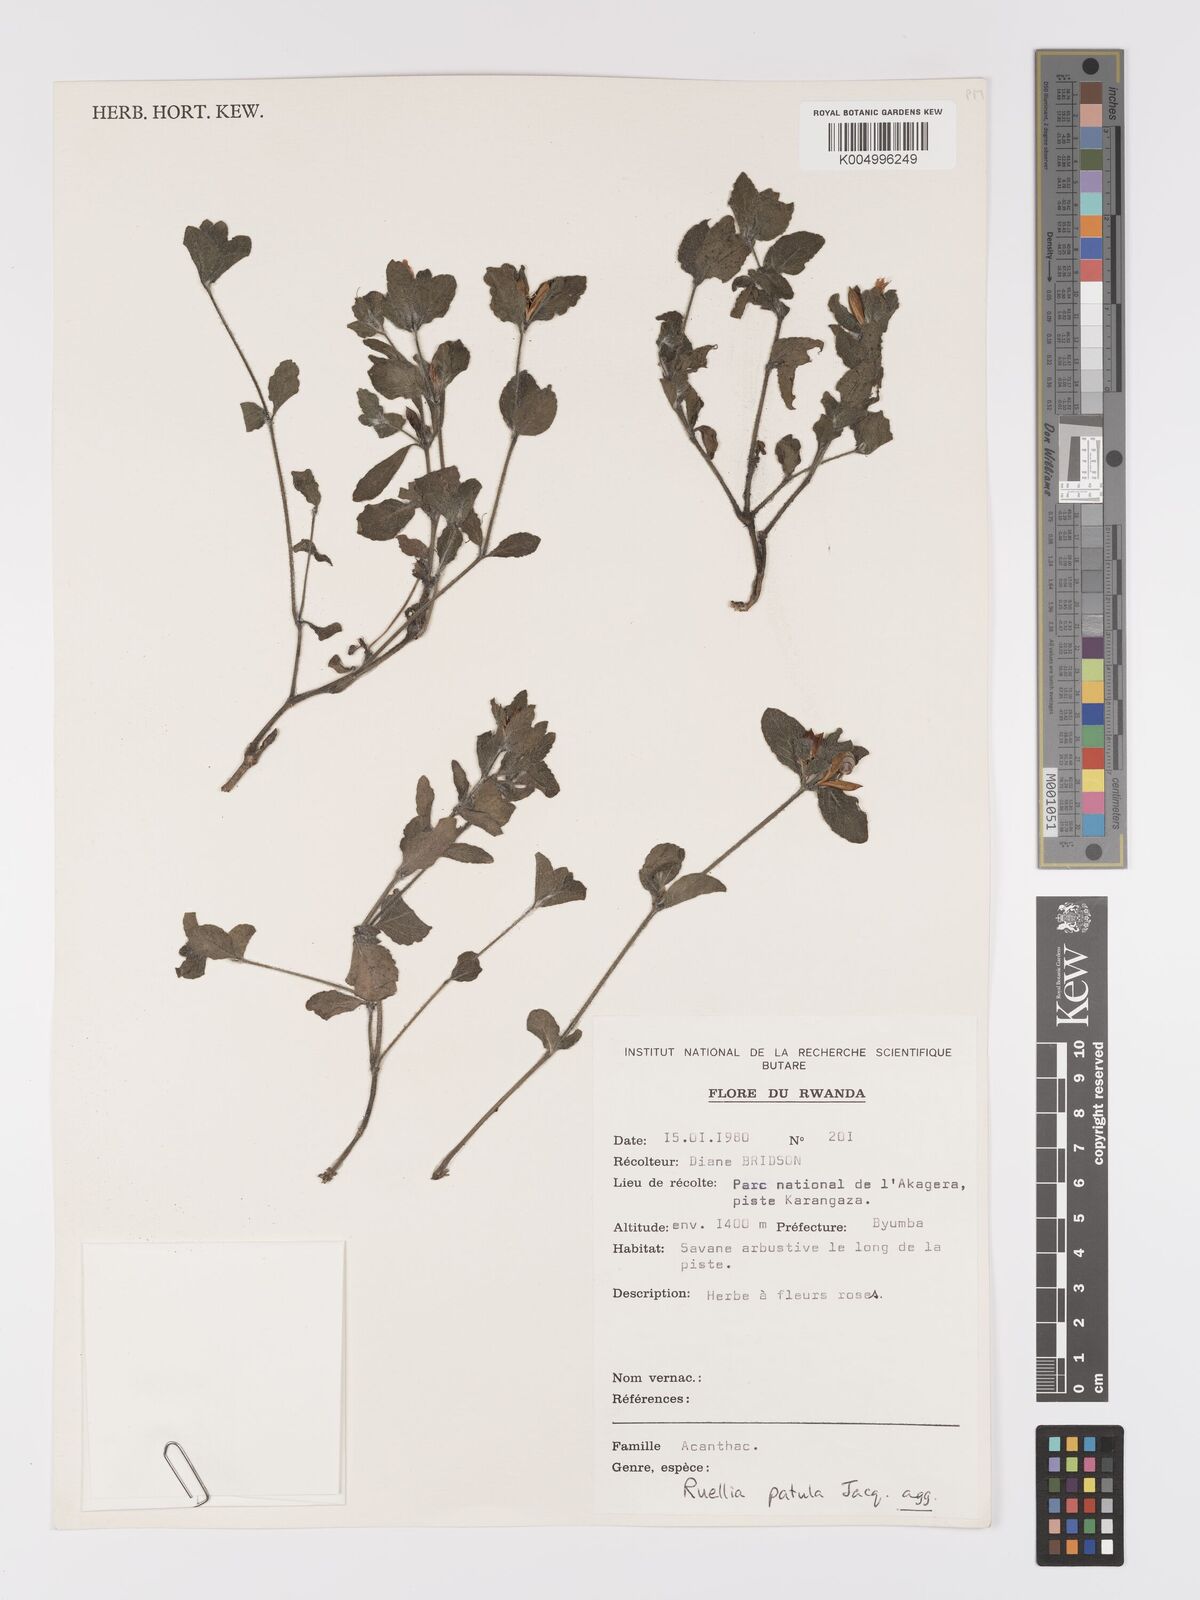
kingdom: Plantae
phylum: Tracheophyta
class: Magnoliopsida
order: Lamiales
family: Acanthaceae
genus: Ruellia
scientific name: Ruellia patula
